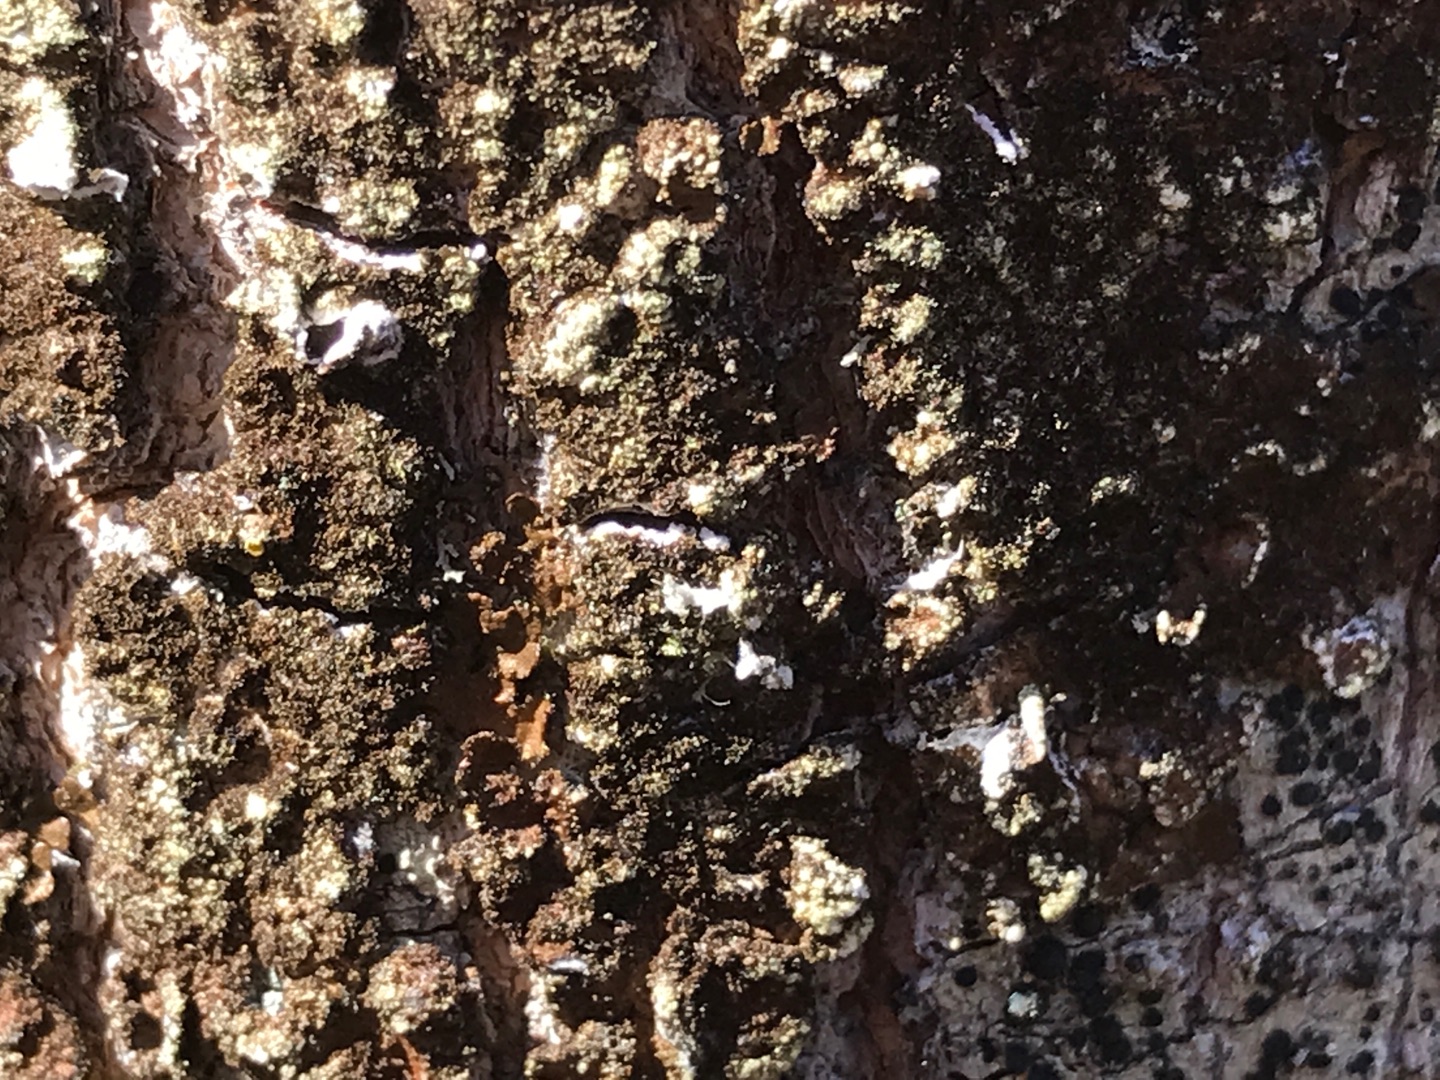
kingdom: Fungi
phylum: Ascomycota
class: Lecanoromycetes
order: Lecanorales
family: Parmeliaceae
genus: Melanelixia
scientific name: Melanelixia
